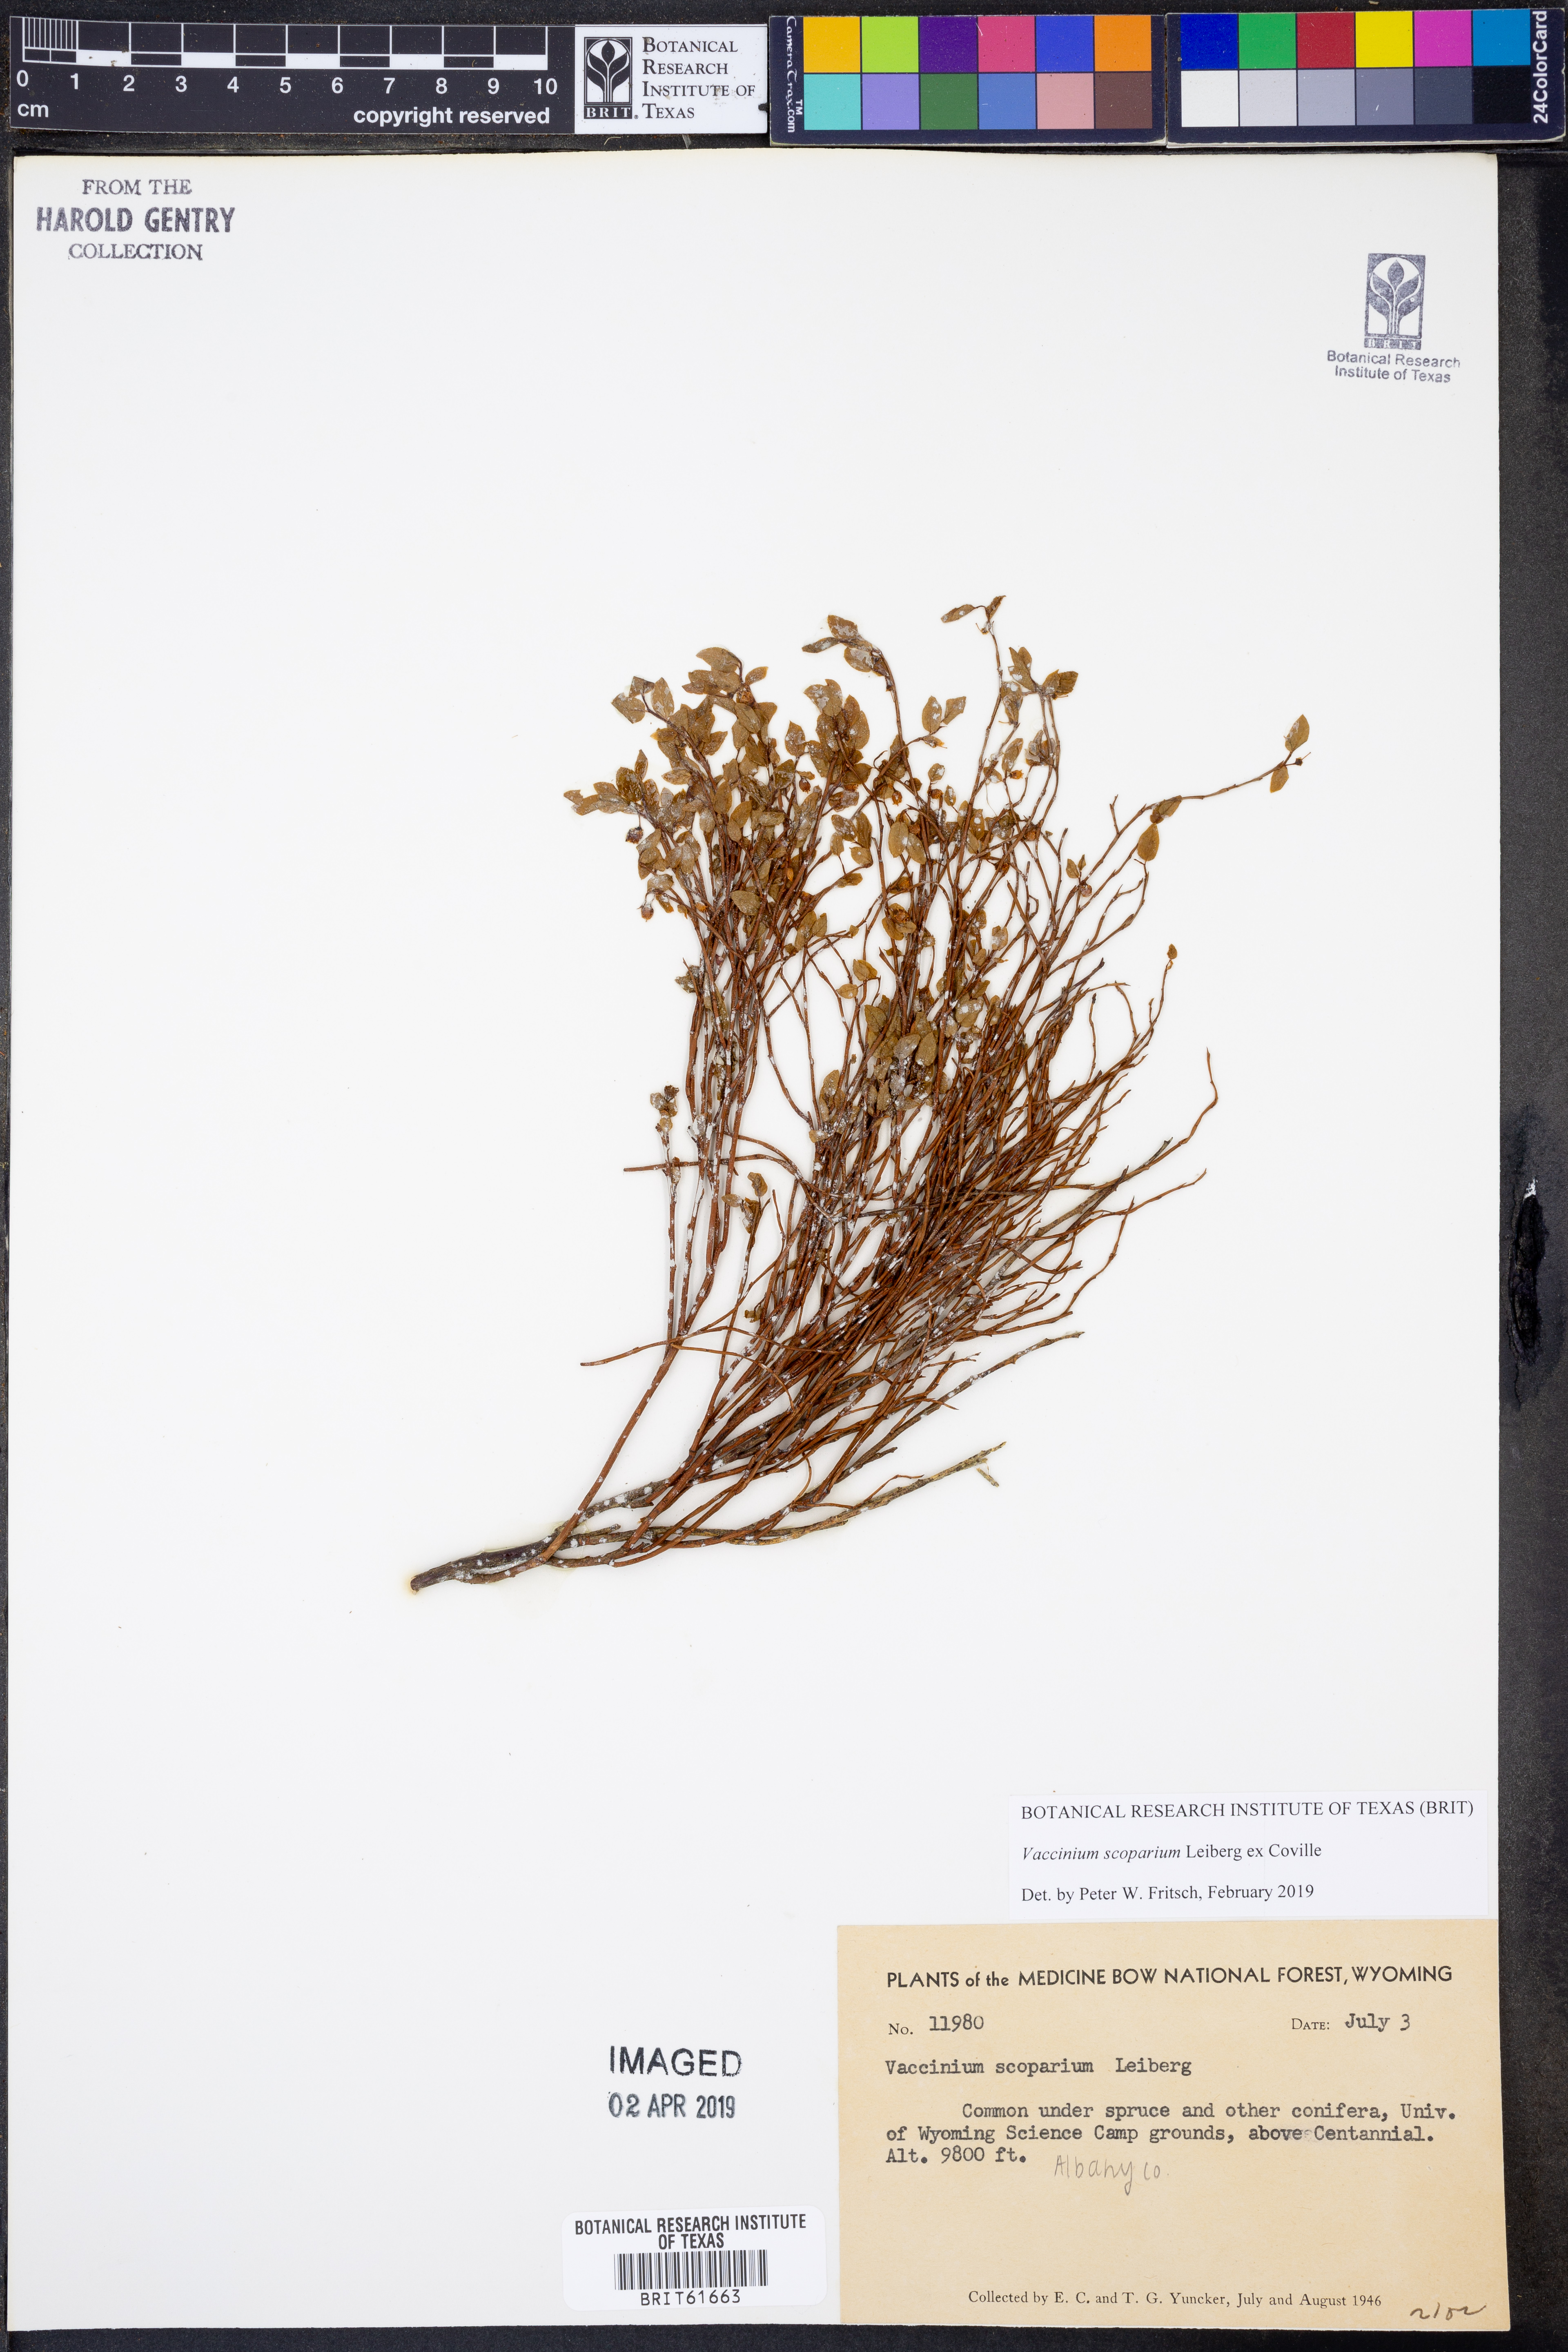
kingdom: Plantae
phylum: Tracheophyta
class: Magnoliopsida
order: Ericales
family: Ericaceae
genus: Vaccinium
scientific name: Vaccinium scoparium
